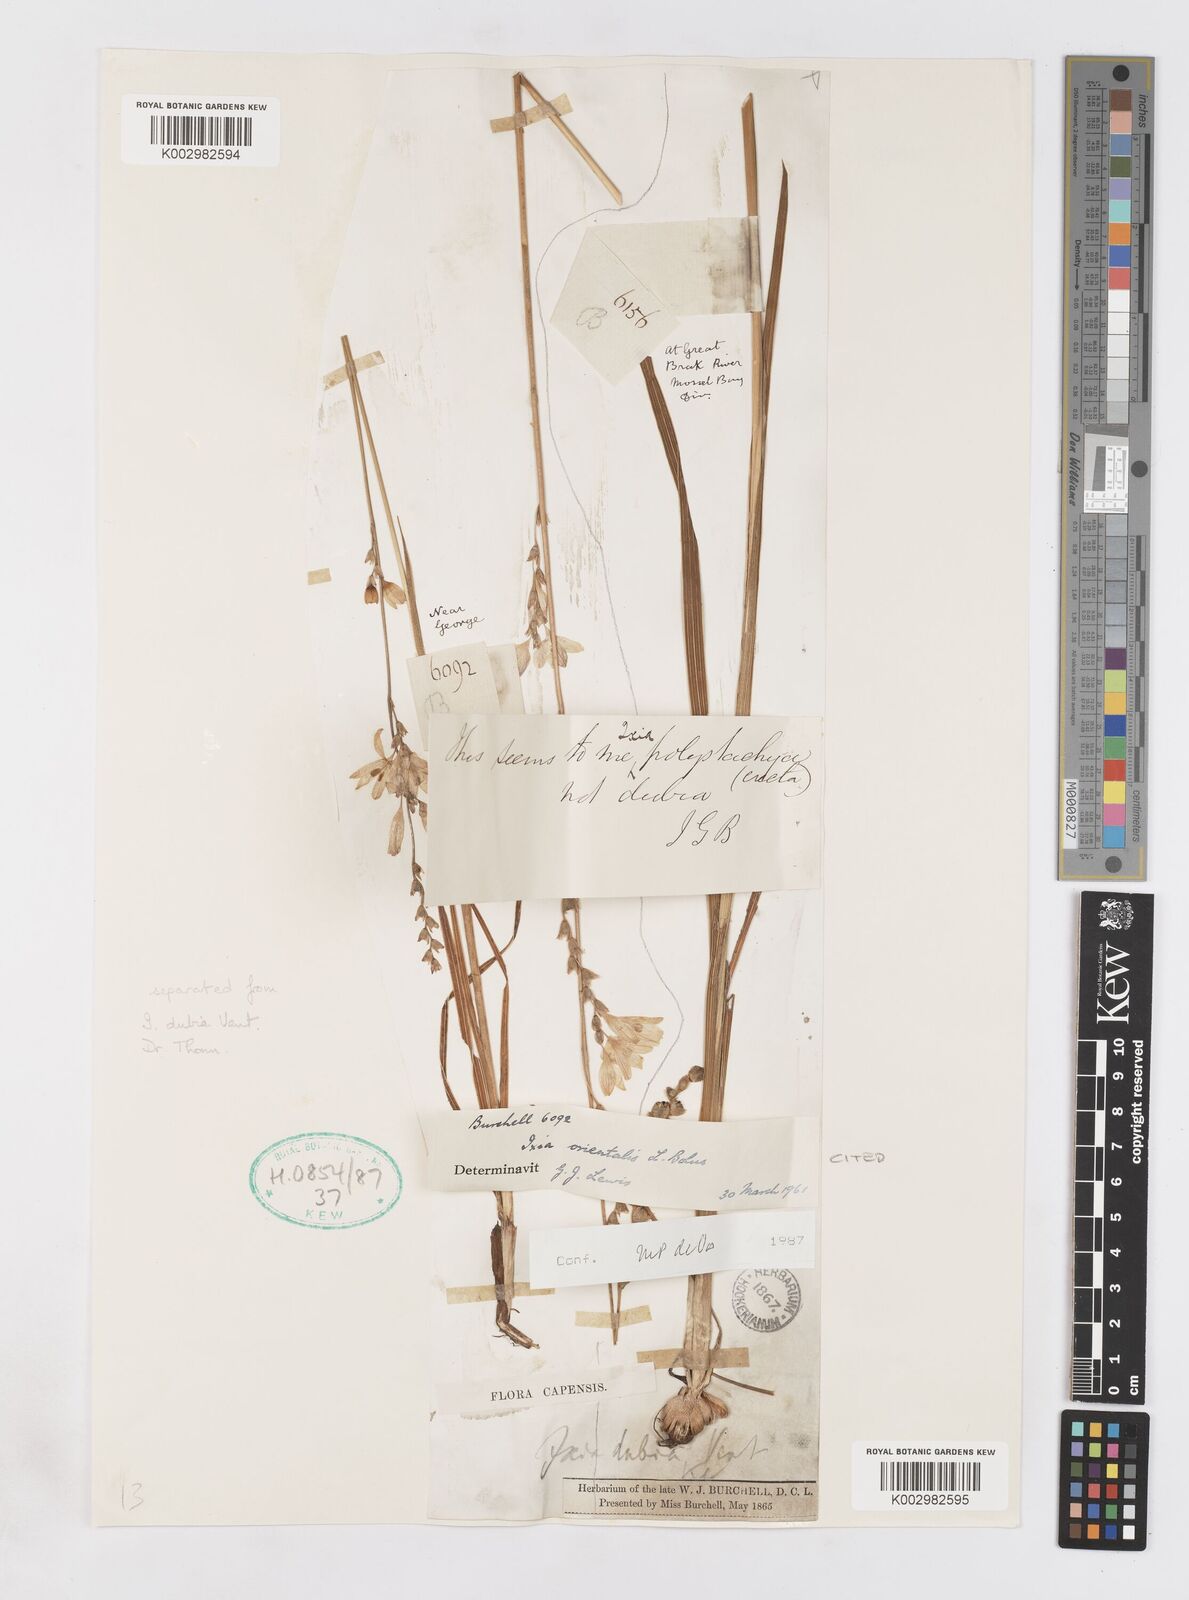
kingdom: Plantae
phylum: Tracheophyta
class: Liliopsida
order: Asparagales
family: Iridaceae
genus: Ixia
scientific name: Ixia orientalis
